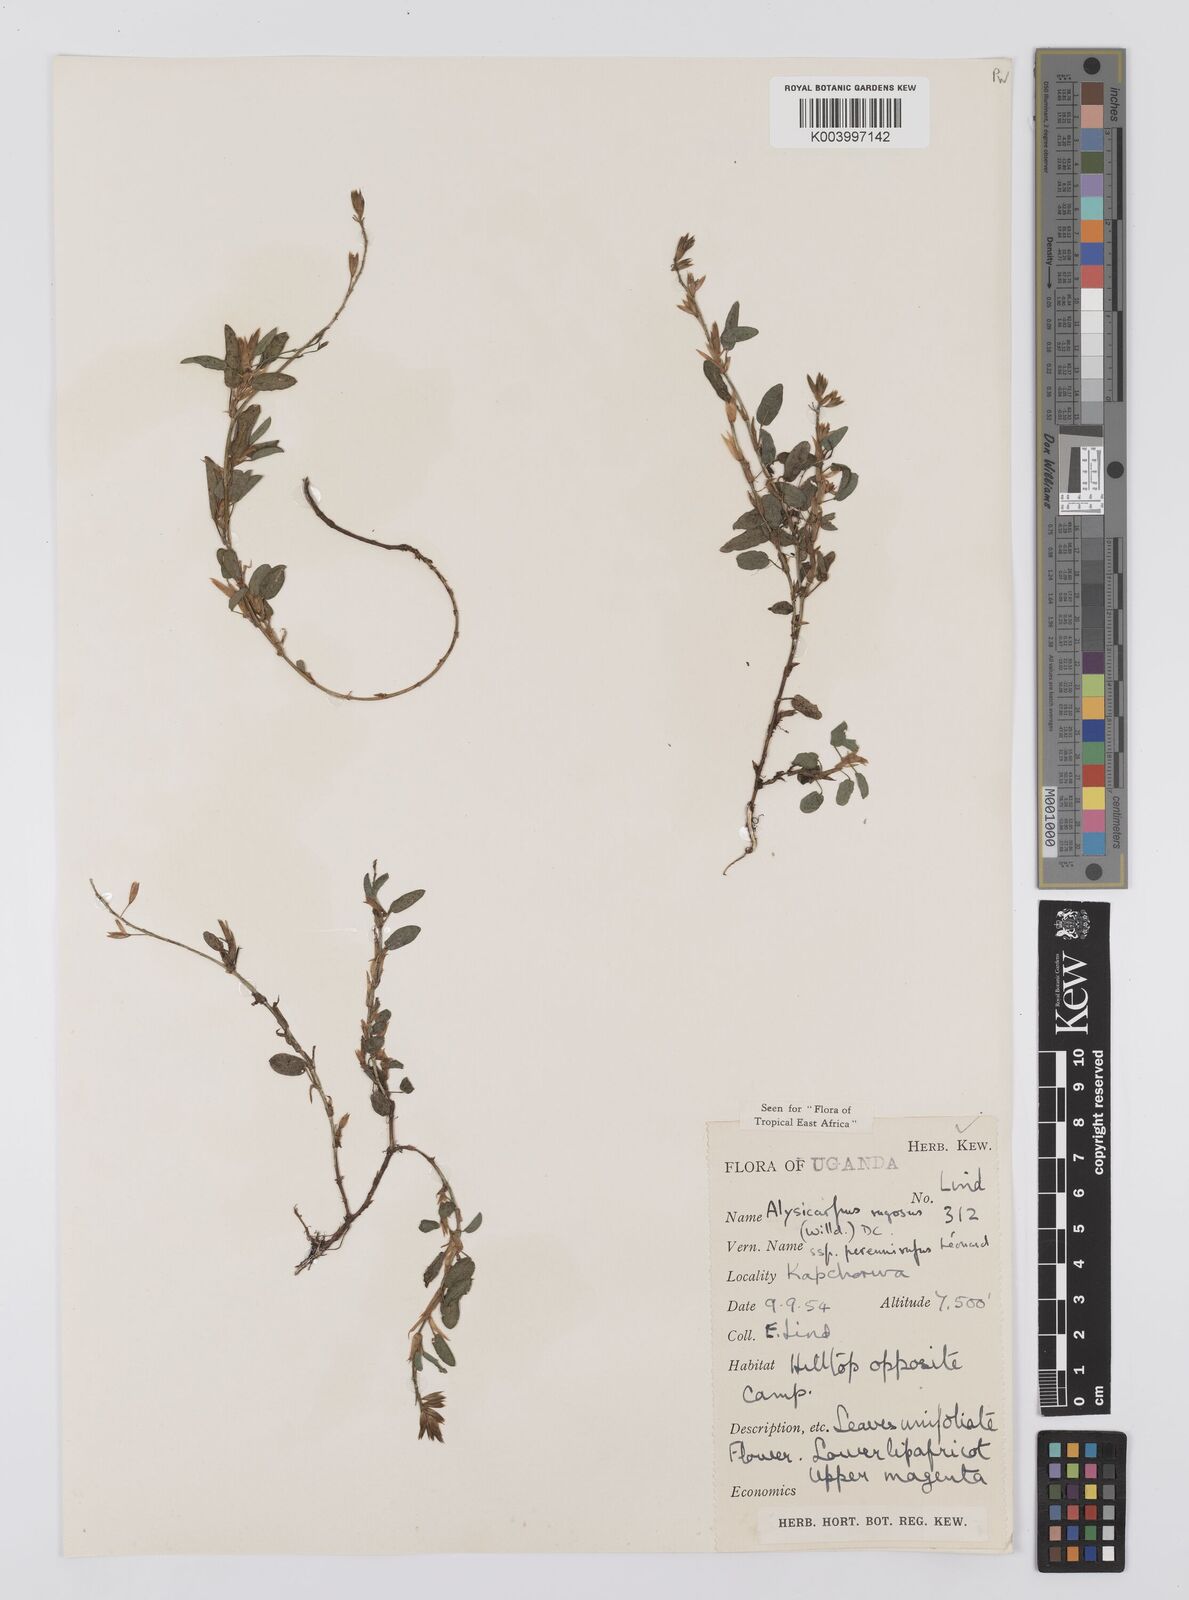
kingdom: Plantae
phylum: Tracheophyta
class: Magnoliopsida
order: Fabales
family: Fabaceae
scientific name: Fabaceae
